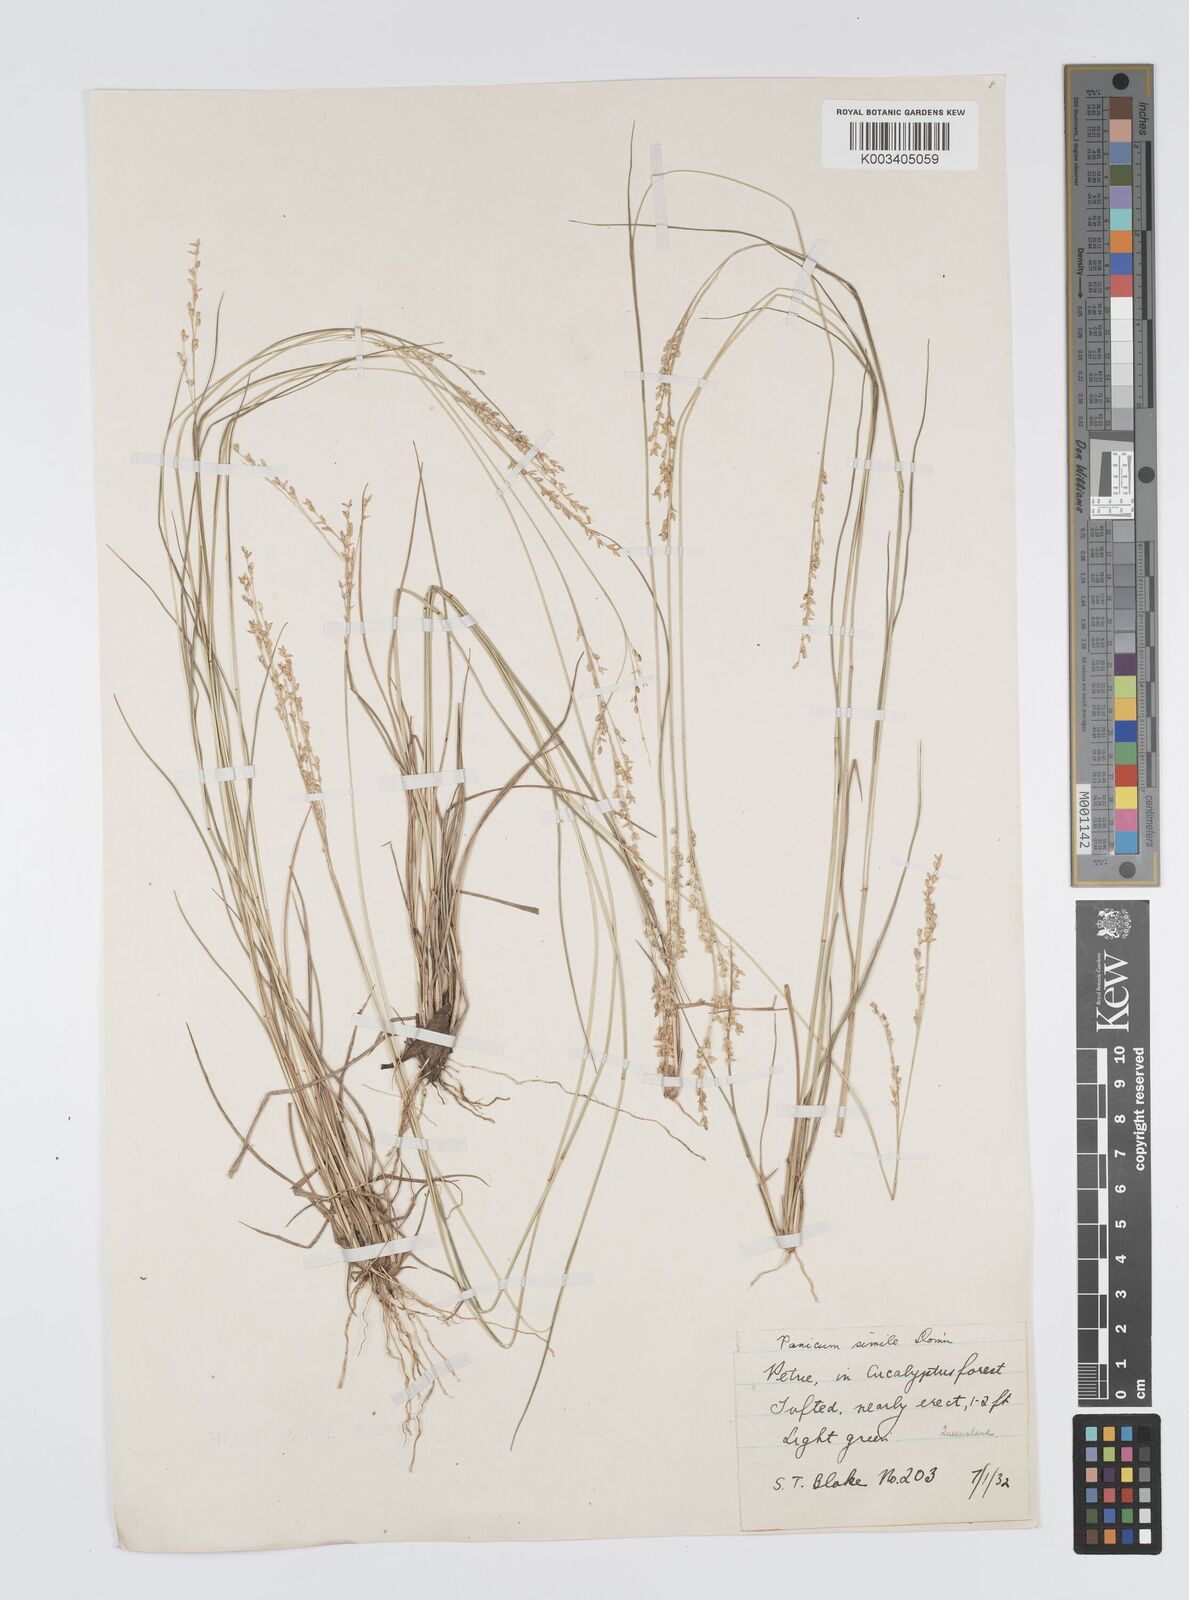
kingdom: Plantae
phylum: Tracheophyta
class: Liliopsida
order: Poales
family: Poaceae
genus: Panicum
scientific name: Panicum simile
